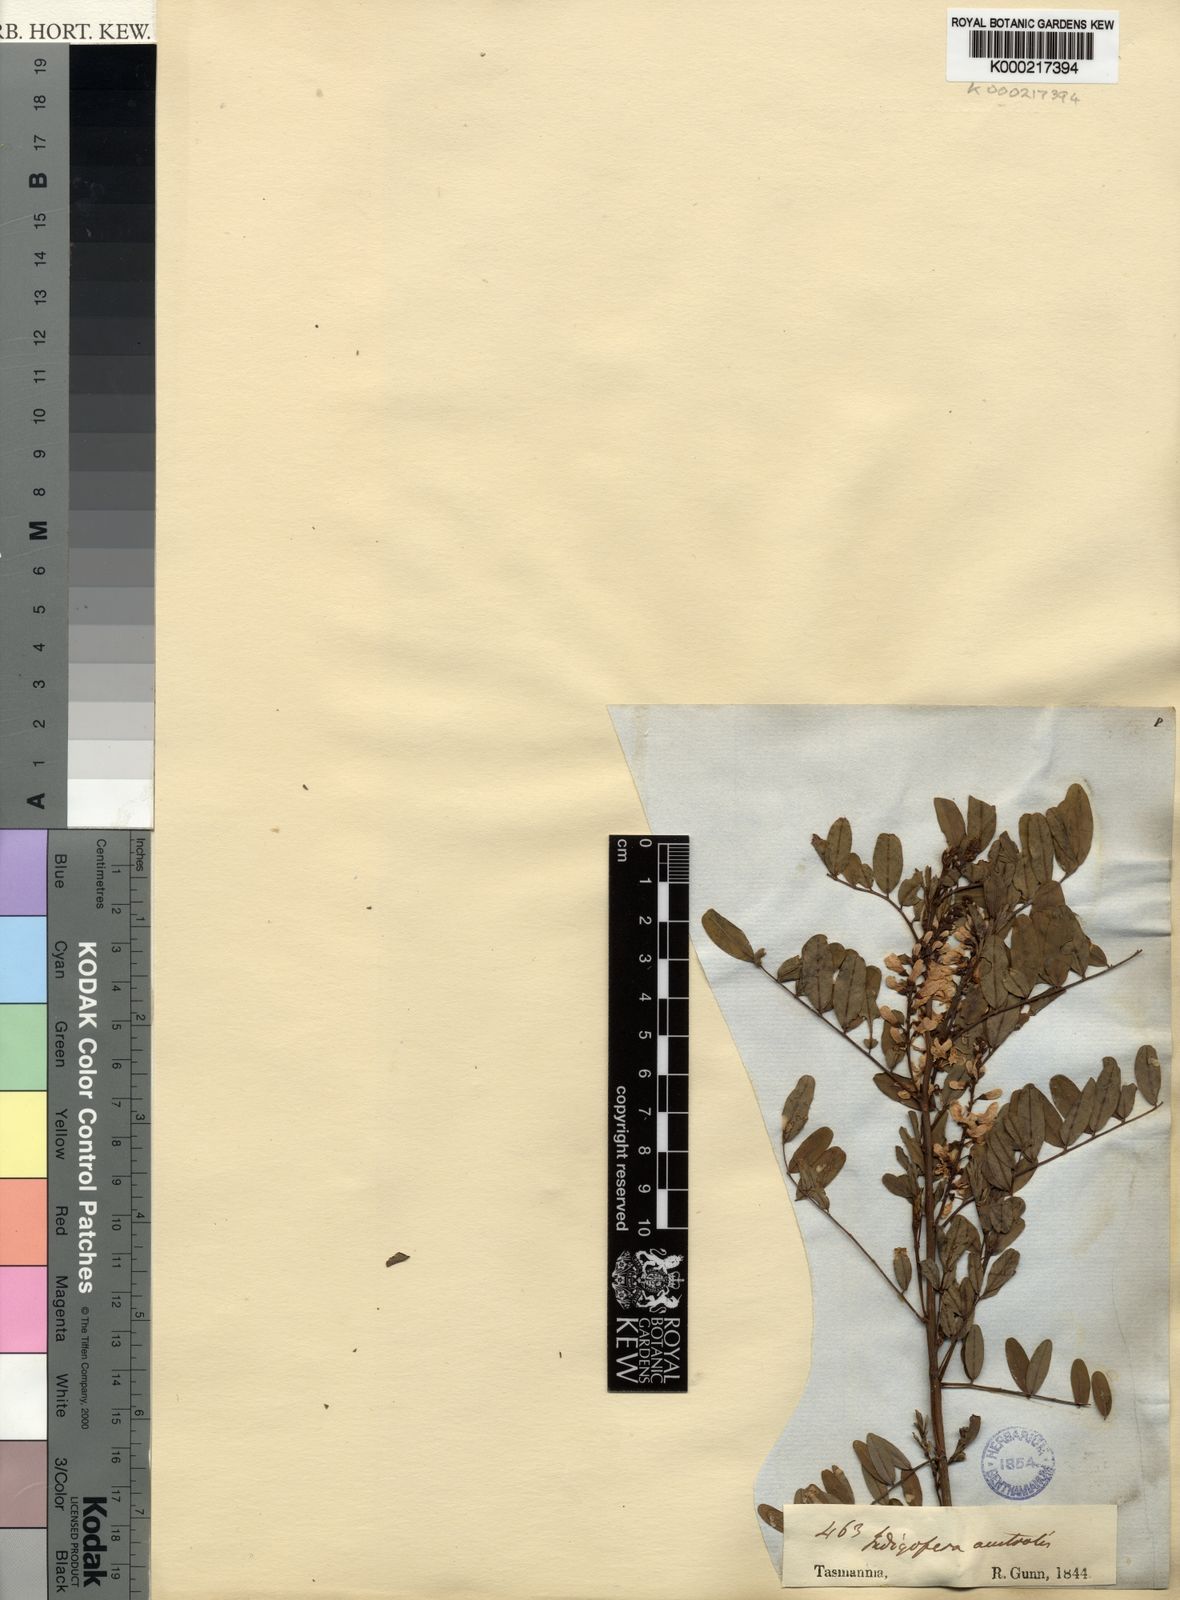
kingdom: Plantae
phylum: Tracheophyta
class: Magnoliopsida
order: Fabales
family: Fabaceae
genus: Indigofera
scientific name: Indigofera australis
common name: Australian indigo
